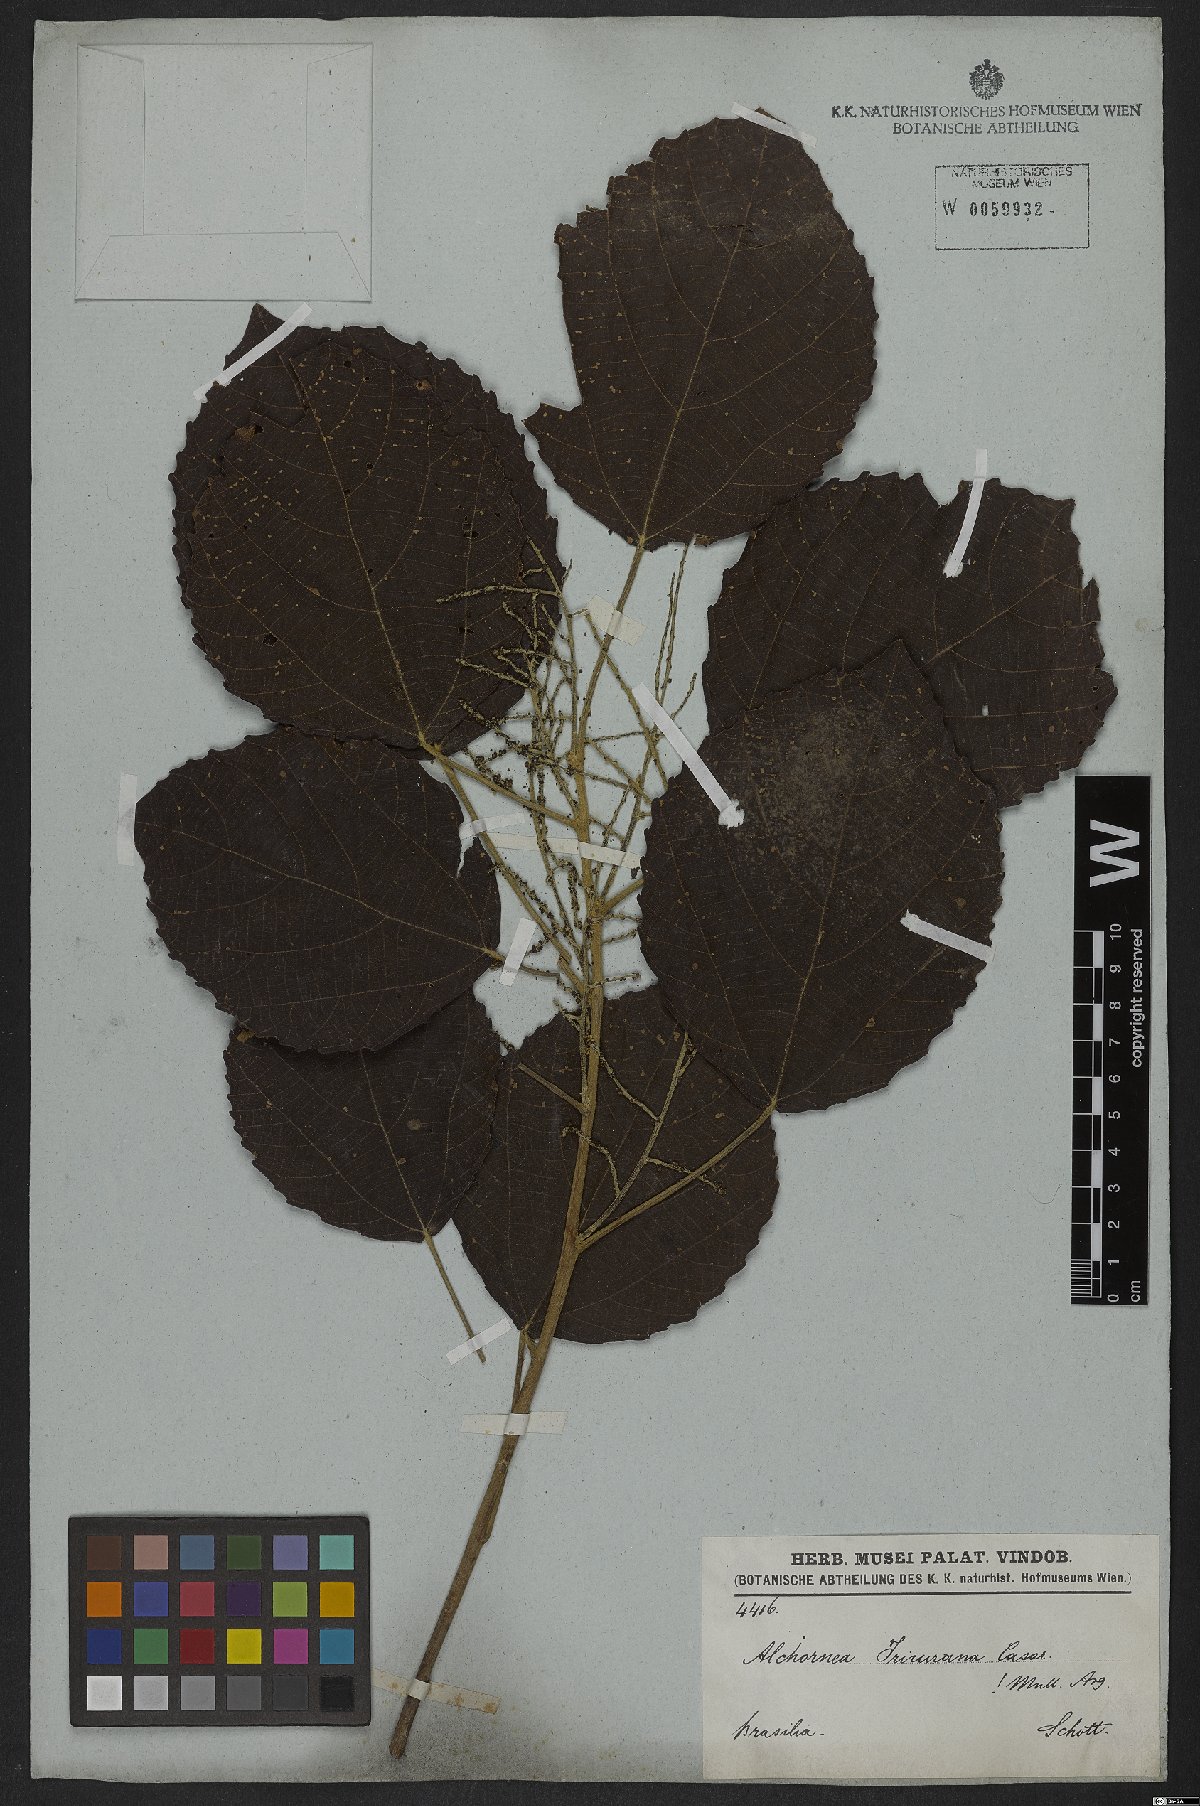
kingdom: Plantae
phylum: Tracheophyta
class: Magnoliopsida
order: Malpighiales
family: Euphorbiaceae
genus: Alchornea
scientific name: Alchornea glandulosa
